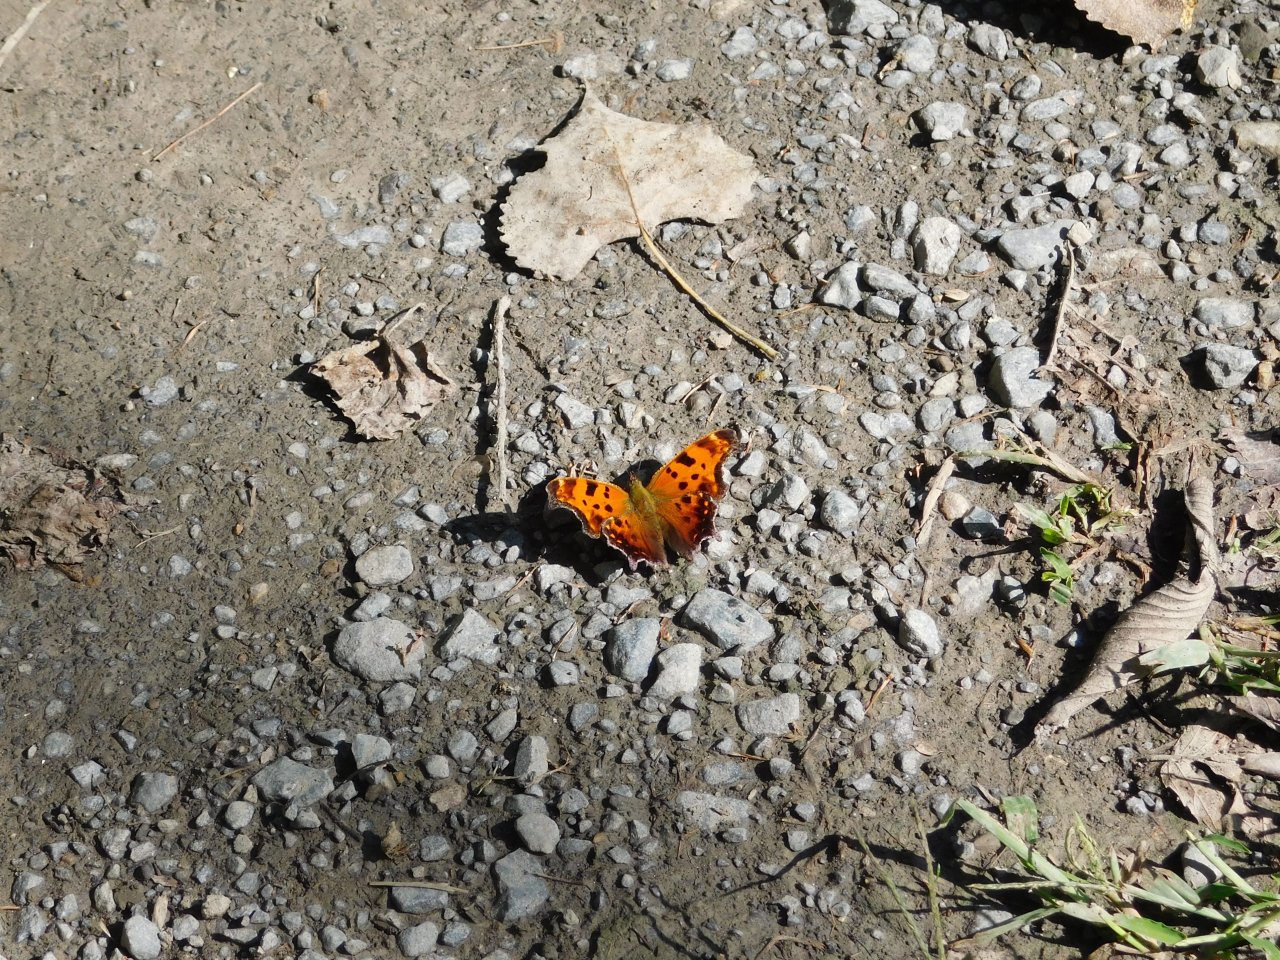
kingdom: Animalia
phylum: Arthropoda
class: Insecta
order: Lepidoptera
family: Nymphalidae
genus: Polygonia
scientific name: Polygonia comma
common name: Eastern Comma
